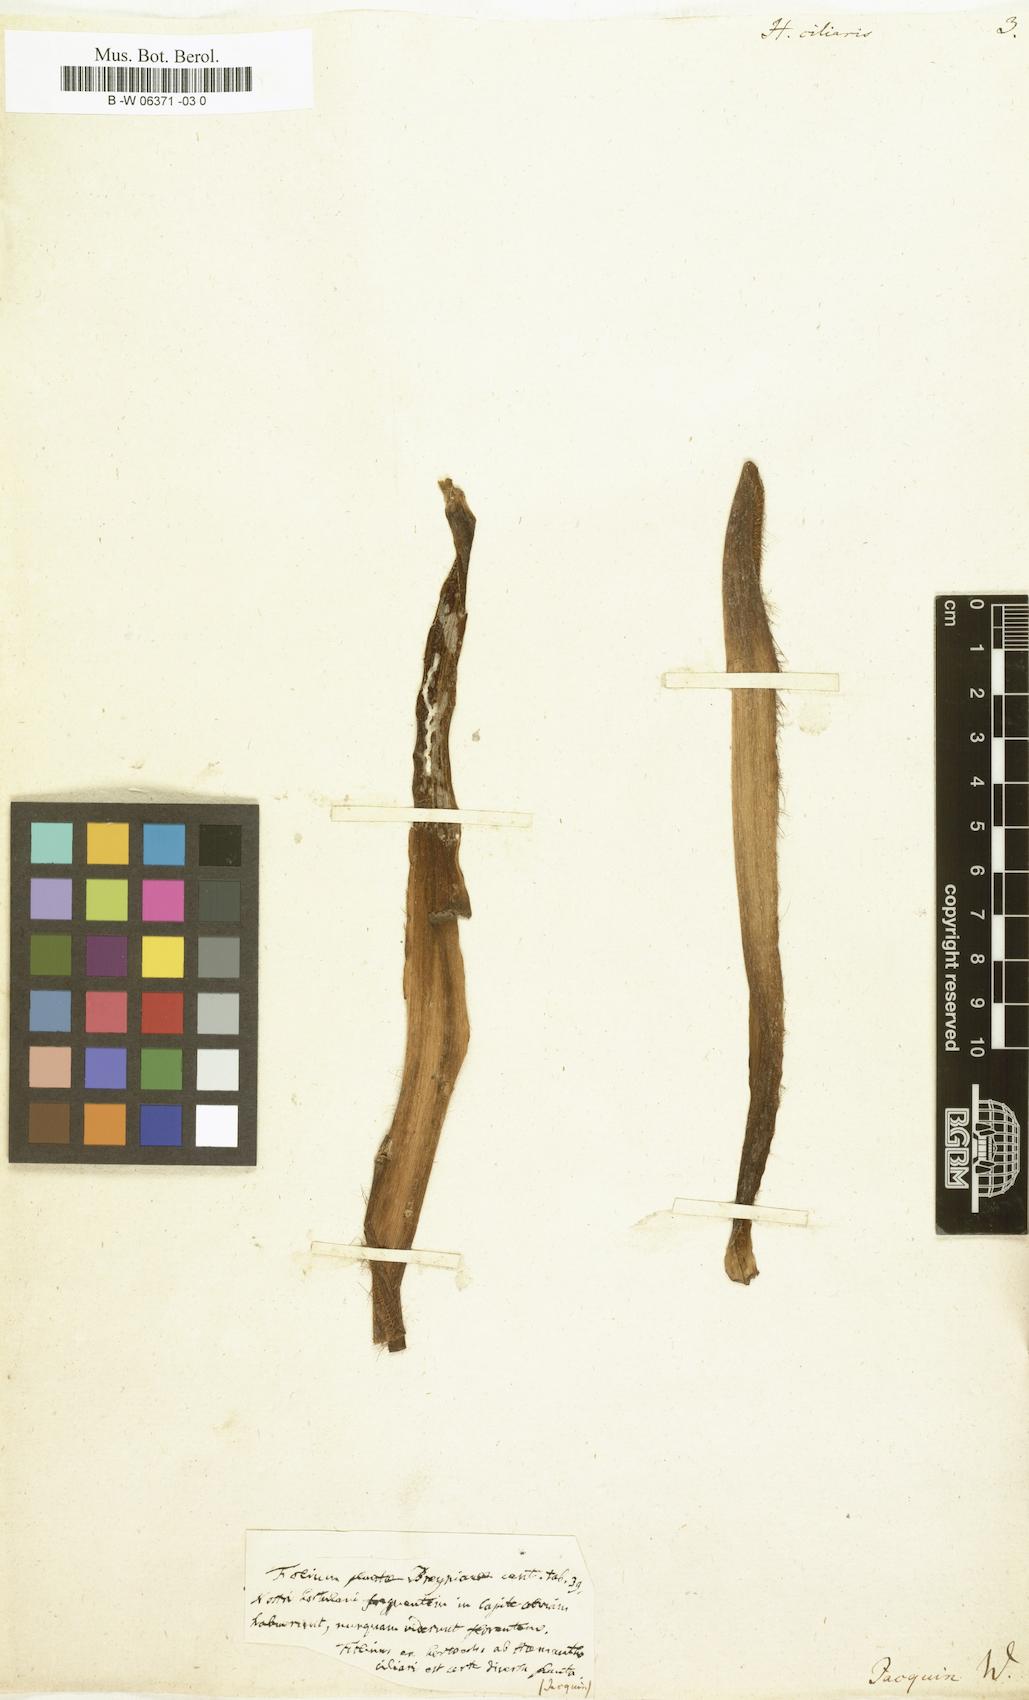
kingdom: Plantae
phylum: Tracheophyta
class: Liliopsida
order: Asparagales
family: Amaryllidaceae
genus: Boophone
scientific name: Boophone disticha
